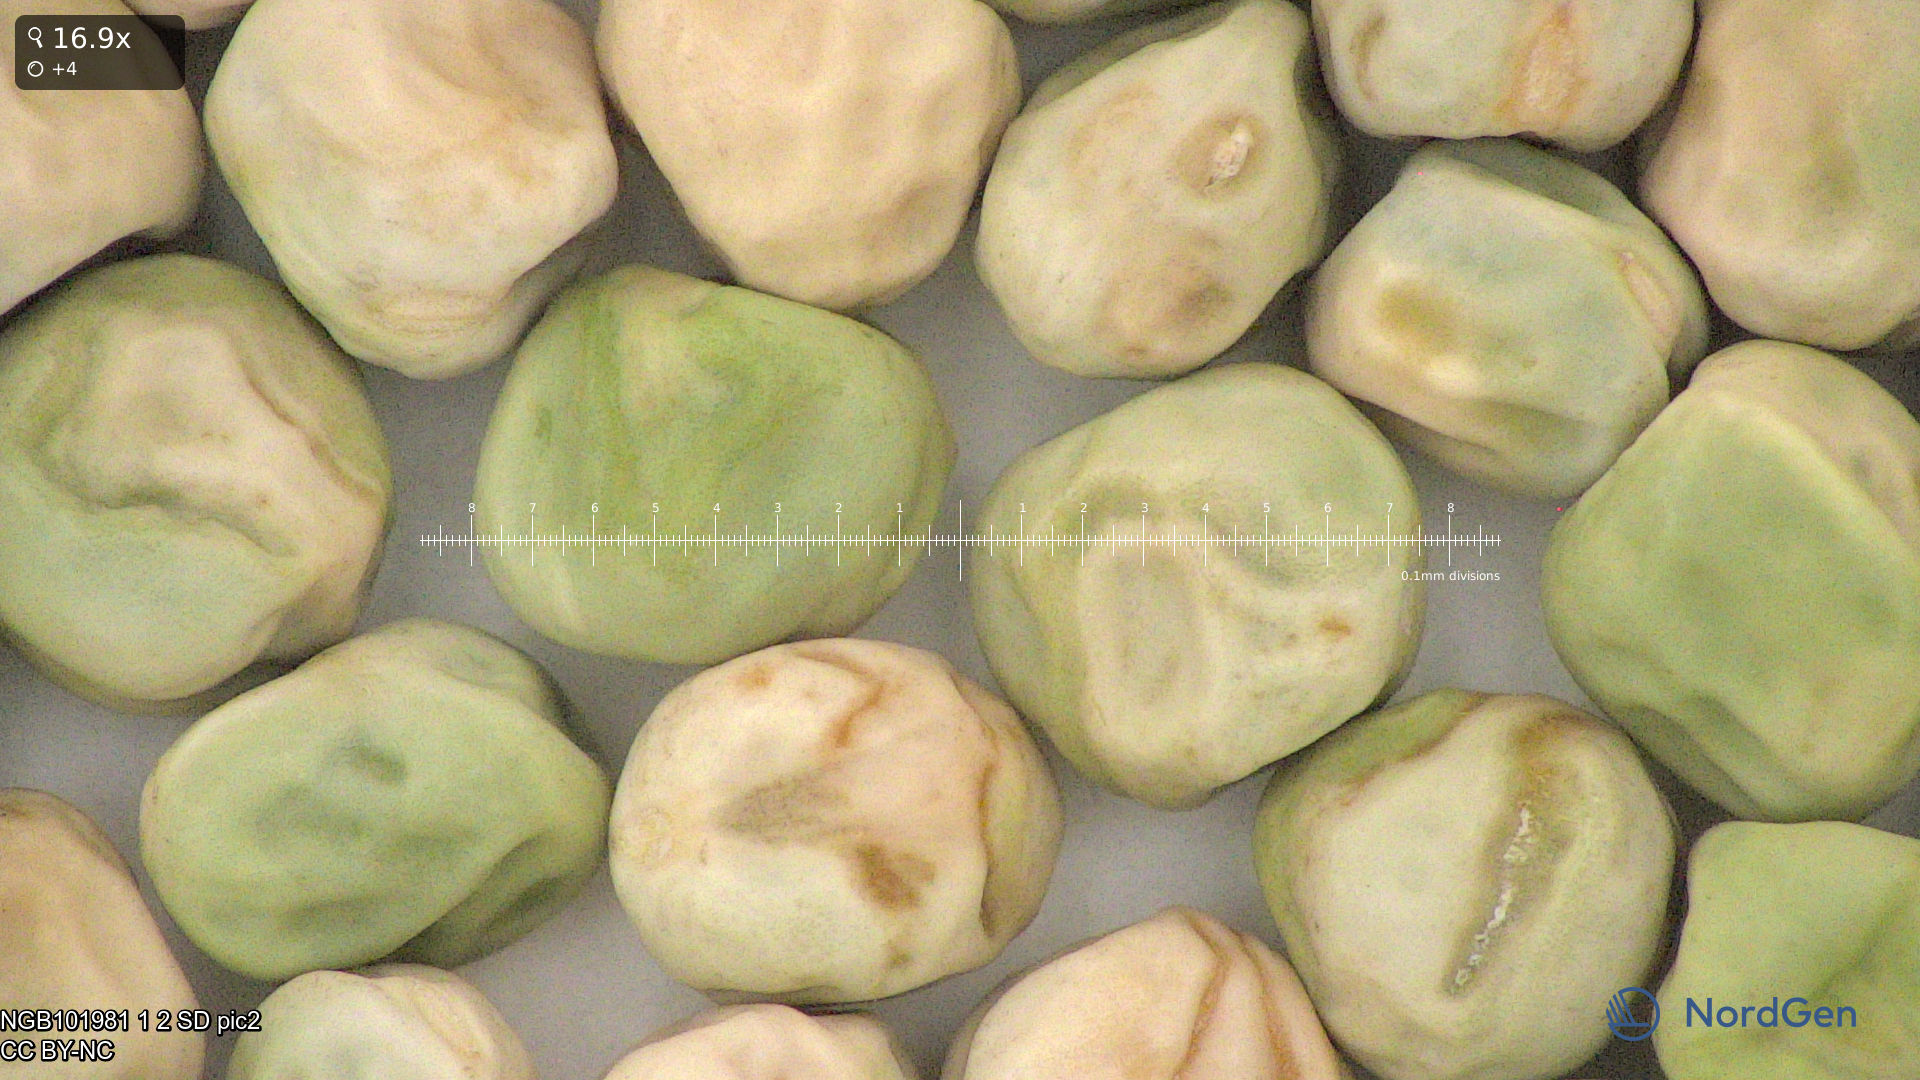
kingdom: Plantae
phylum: Tracheophyta
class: Magnoliopsida
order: Fabales
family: Fabaceae
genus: Lathyrus
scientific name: Lathyrus oleraceus
